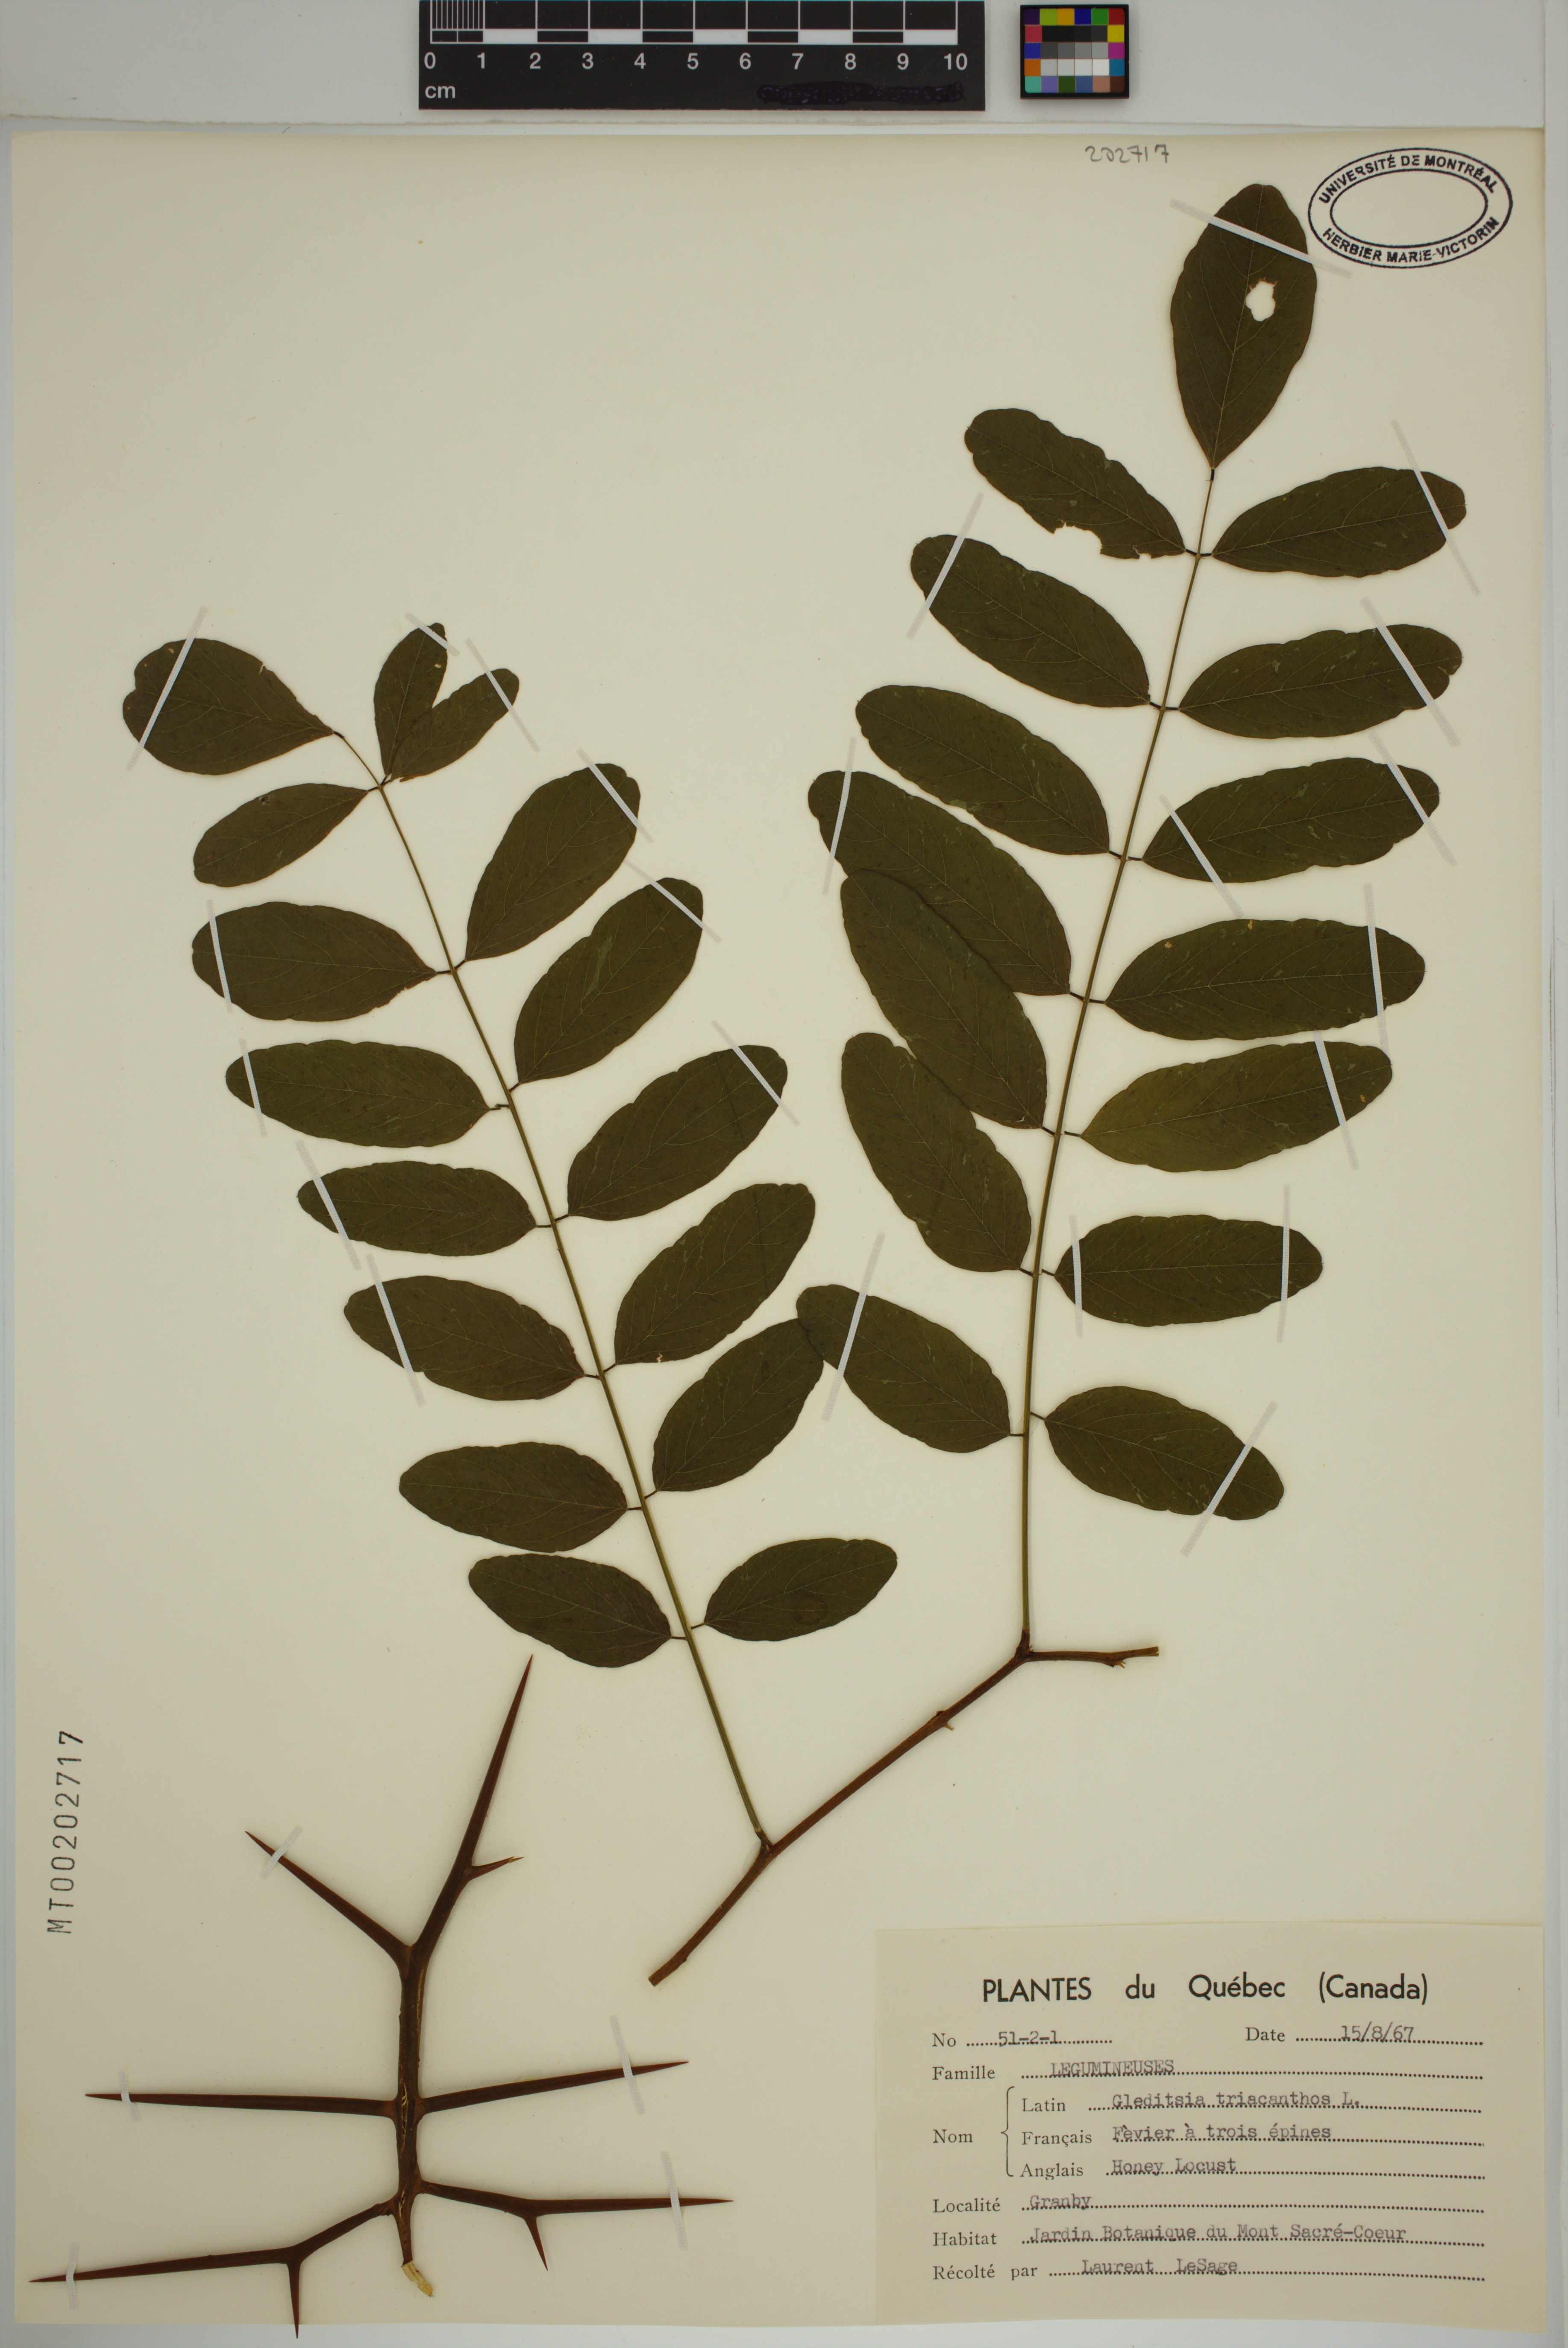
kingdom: Plantae
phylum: Tracheophyta
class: Magnoliopsida
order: Fabales
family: Fabaceae
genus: Gleditsia
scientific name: Gleditsia triacanthos
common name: Common honeylocust
